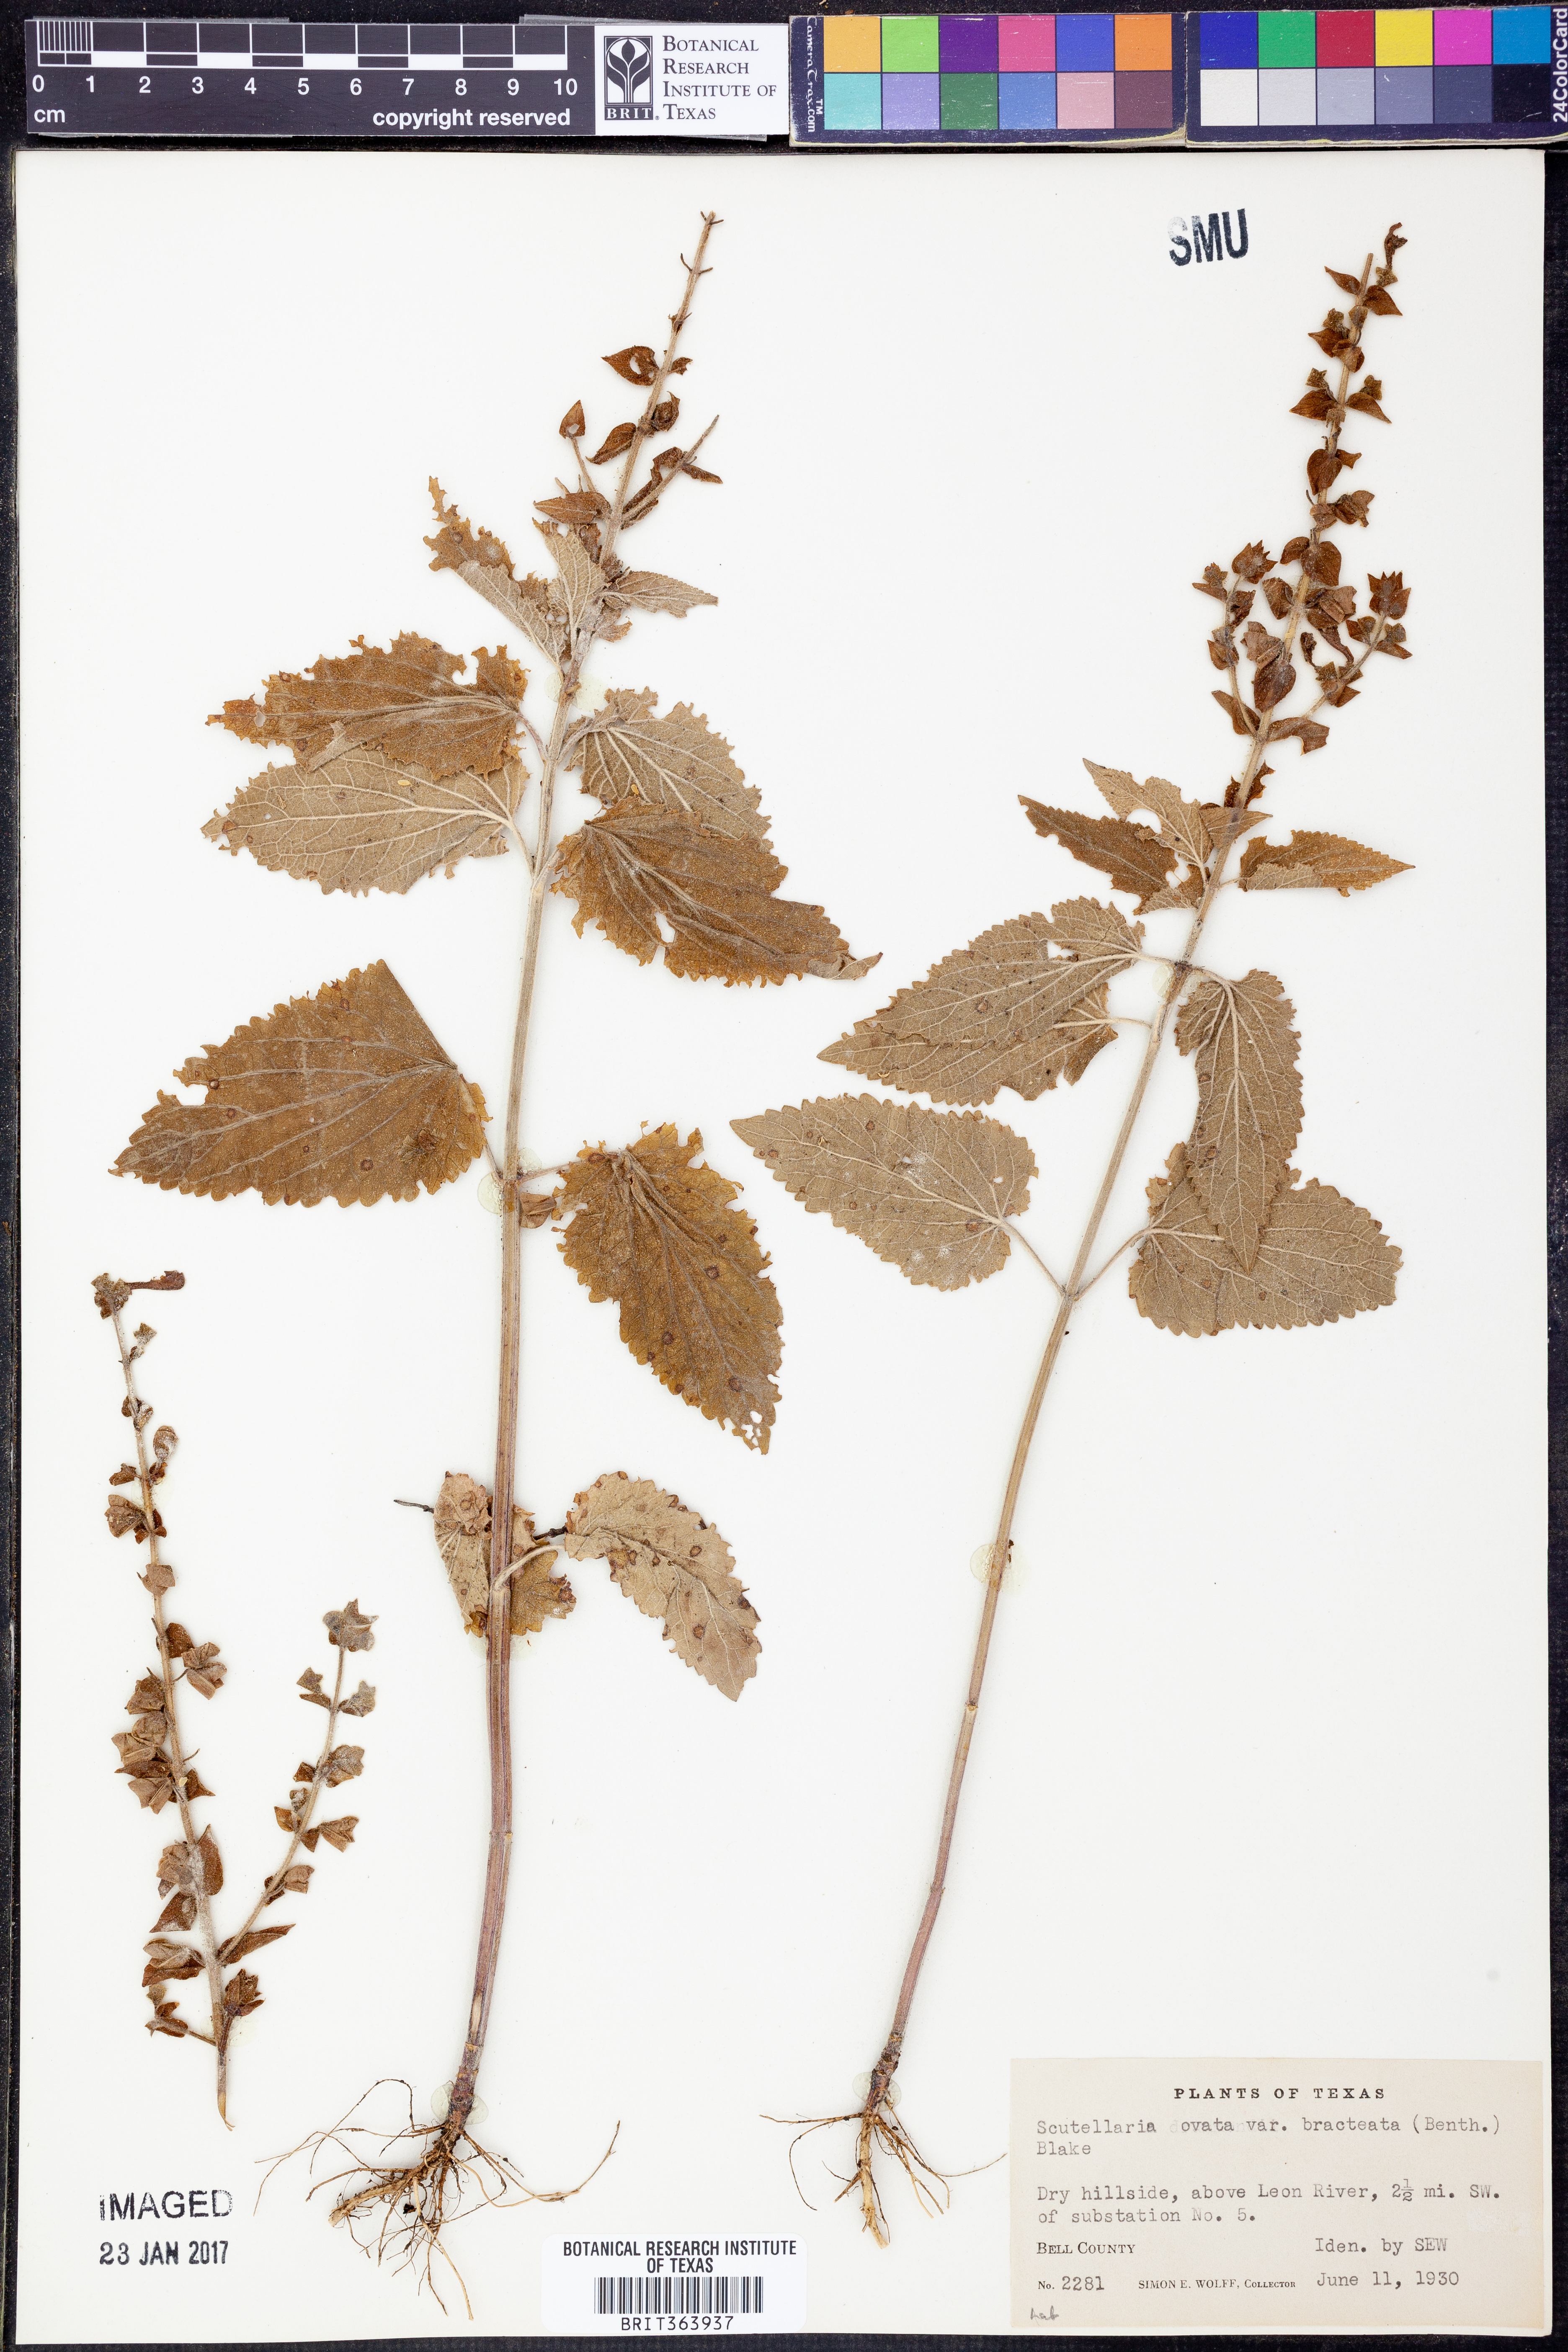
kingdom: Plantae
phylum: Tracheophyta
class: Magnoliopsida
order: Lamiales
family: Lamiaceae
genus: Scutellaria
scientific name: Scutellaria ovata
